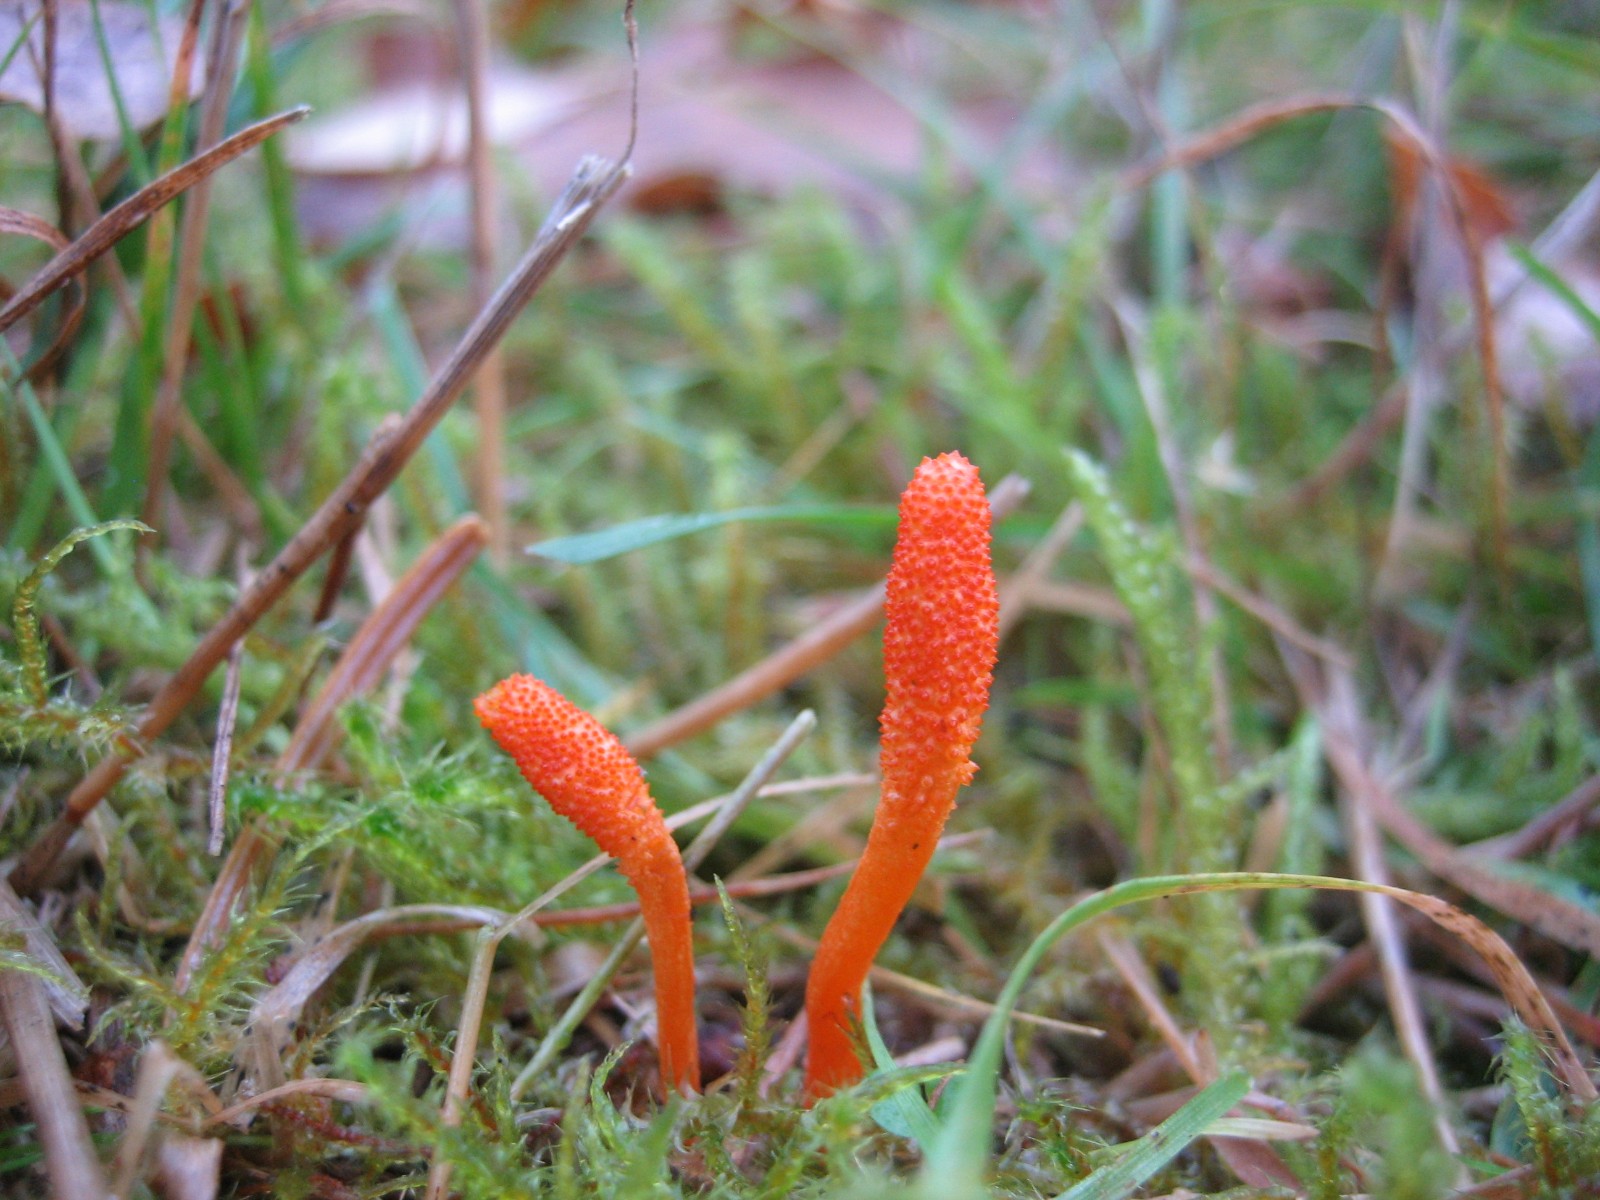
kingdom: Fungi
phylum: Ascomycota
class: Sordariomycetes
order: Hypocreales
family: Cordycipitaceae
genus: Cordyceps
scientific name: Cordyceps militaris
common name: puppe-snyltekølle
